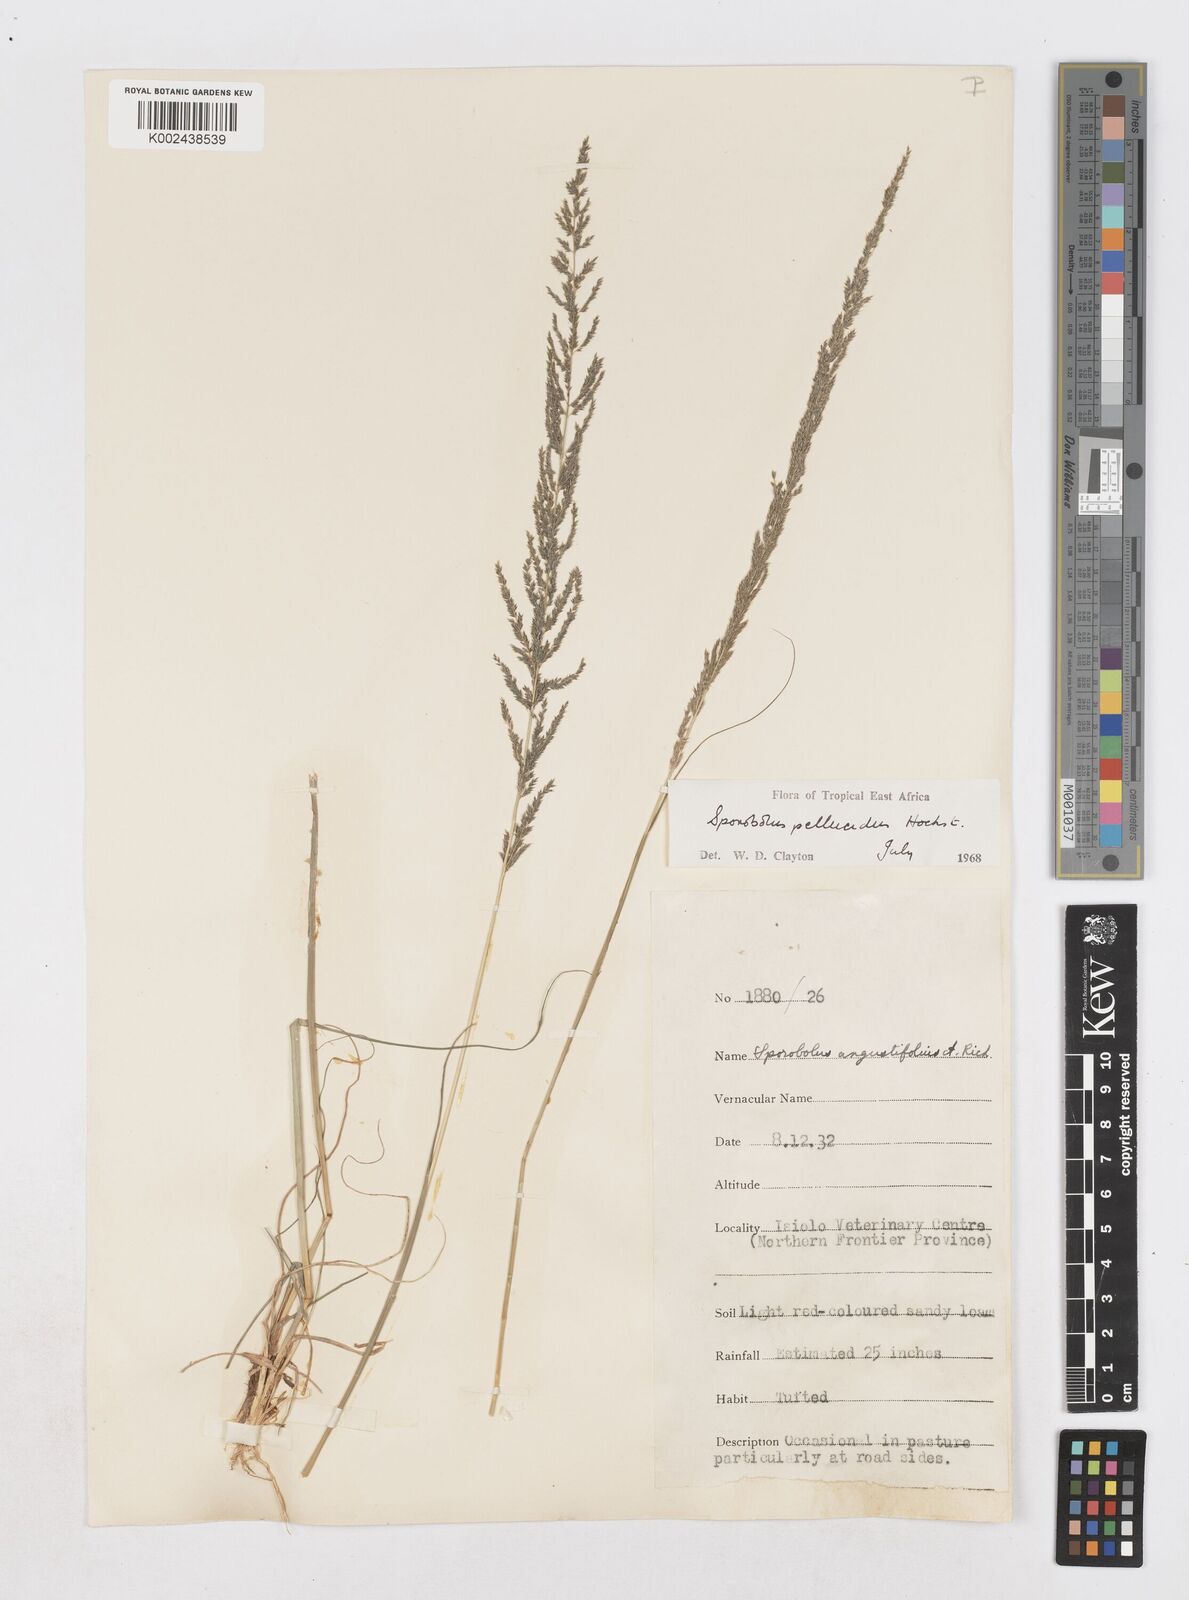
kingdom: Plantae
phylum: Tracheophyta
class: Liliopsida
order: Poales
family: Poaceae
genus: Sporobolus
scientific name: Sporobolus pellucidus
